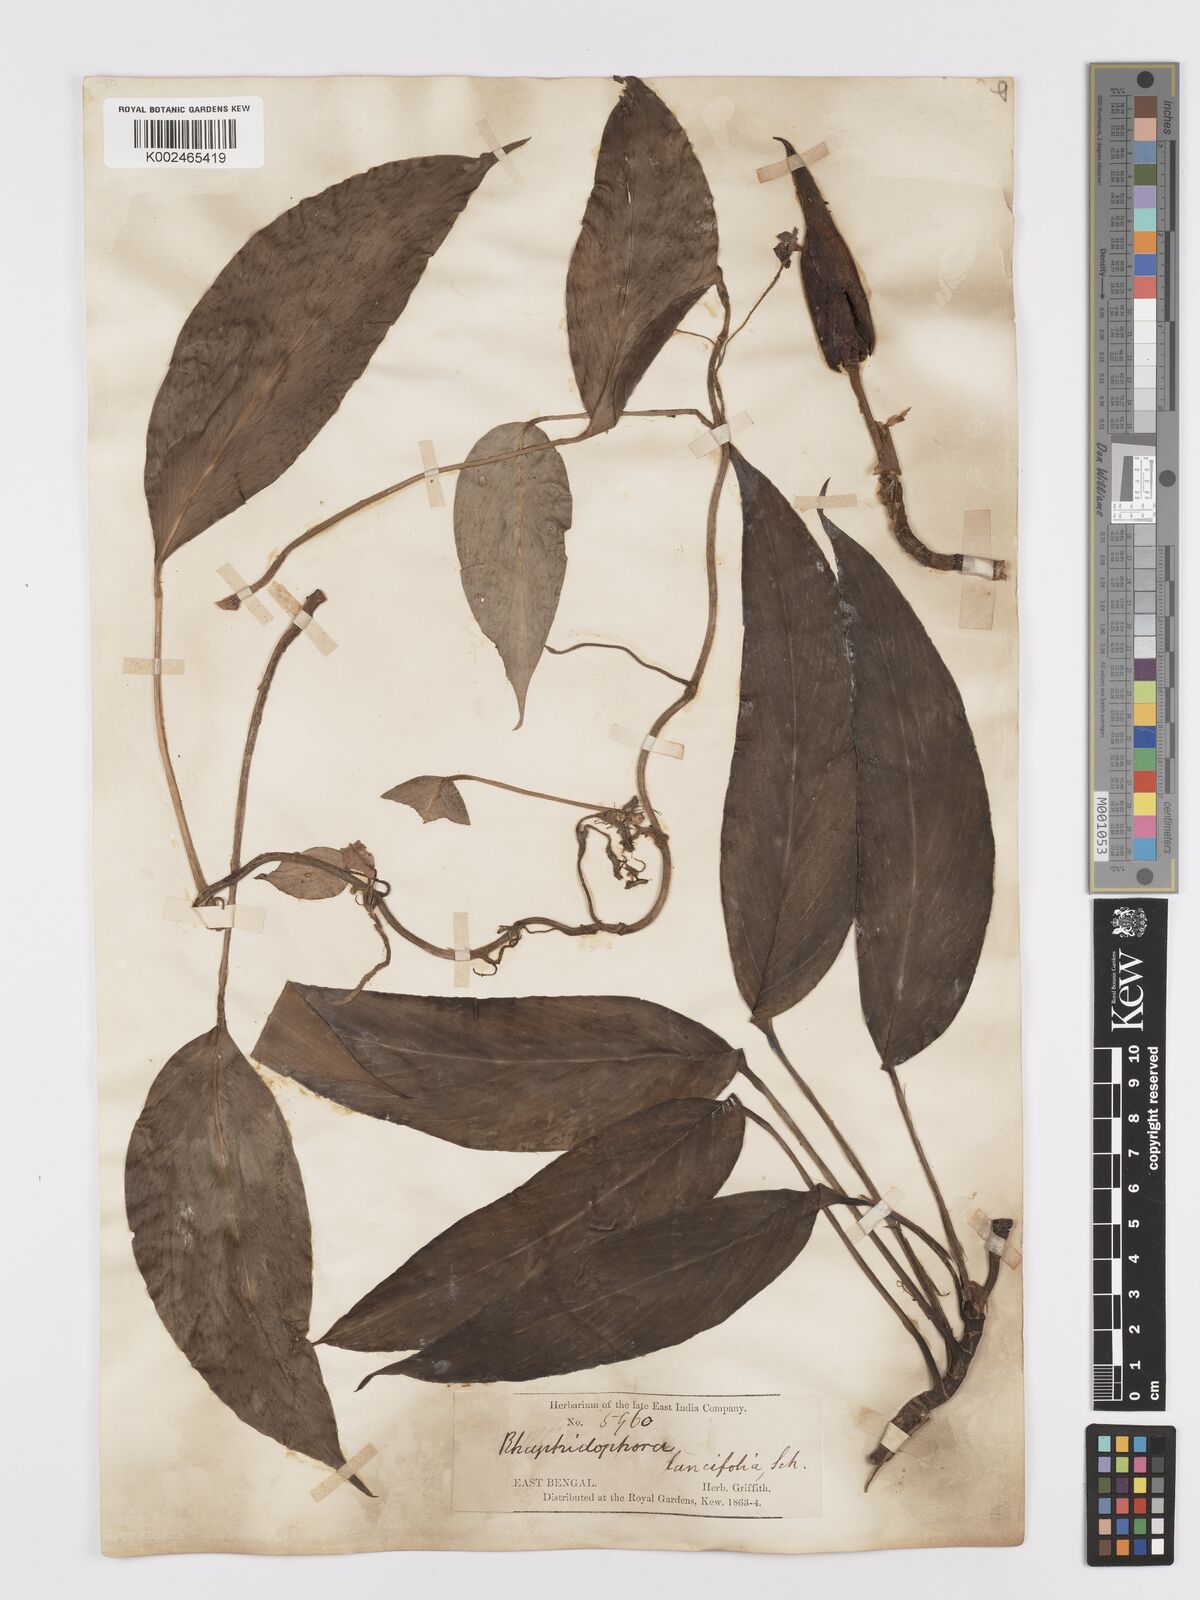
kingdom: Plantae
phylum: Tracheophyta
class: Liliopsida
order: Alismatales
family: Araceae
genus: Rhaphidophora
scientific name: Rhaphidophora peepla
